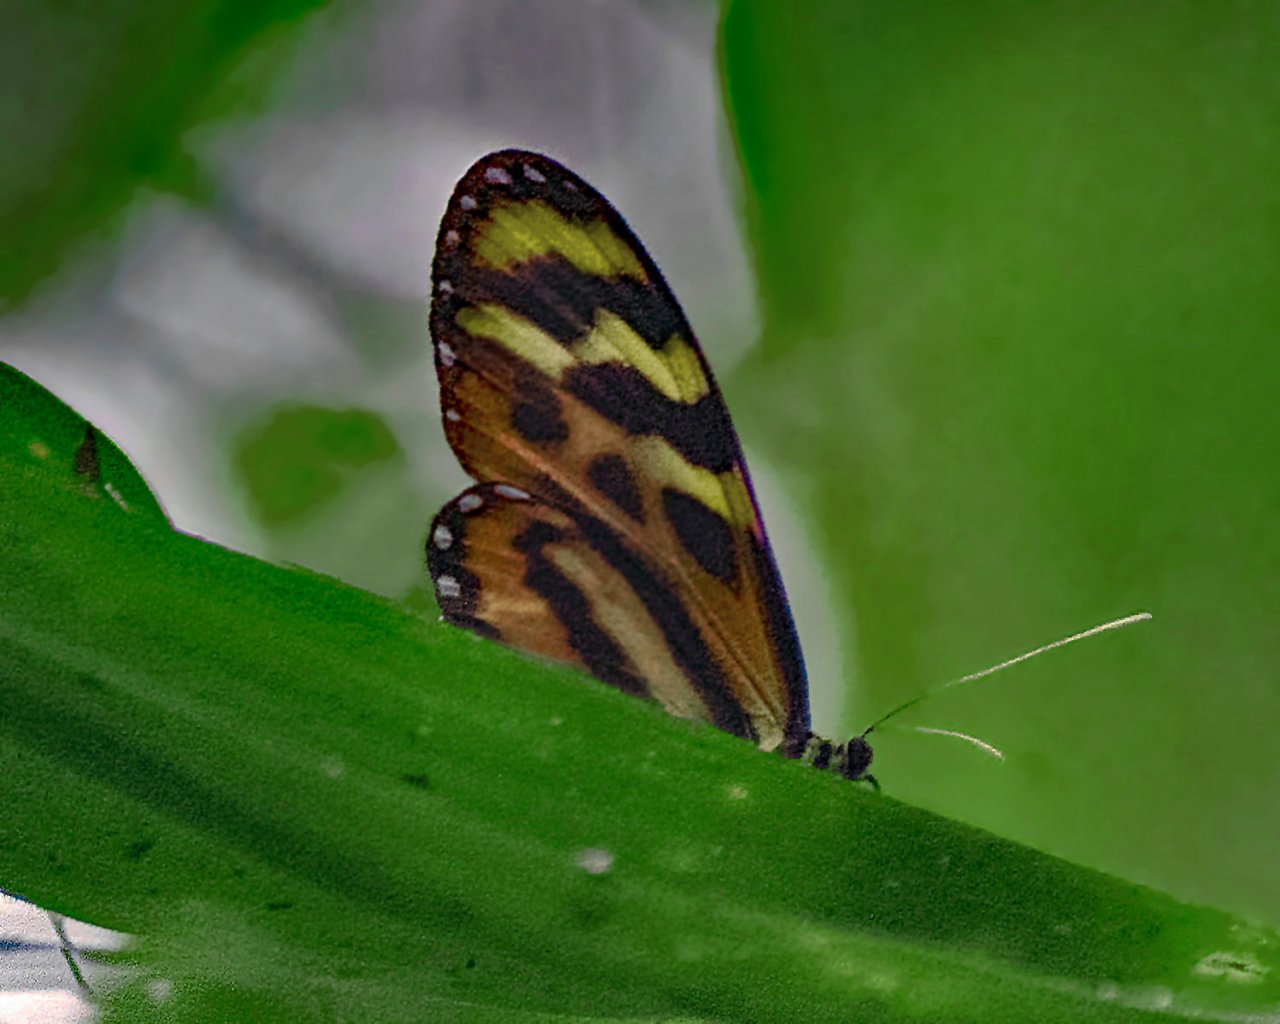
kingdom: Animalia
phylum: Arthropoda
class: Insecta
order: Lepidoptera
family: Nymphalidae
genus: Mechanitis
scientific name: Mechanitis lysimnia
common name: Lysimnia Tigerwing
